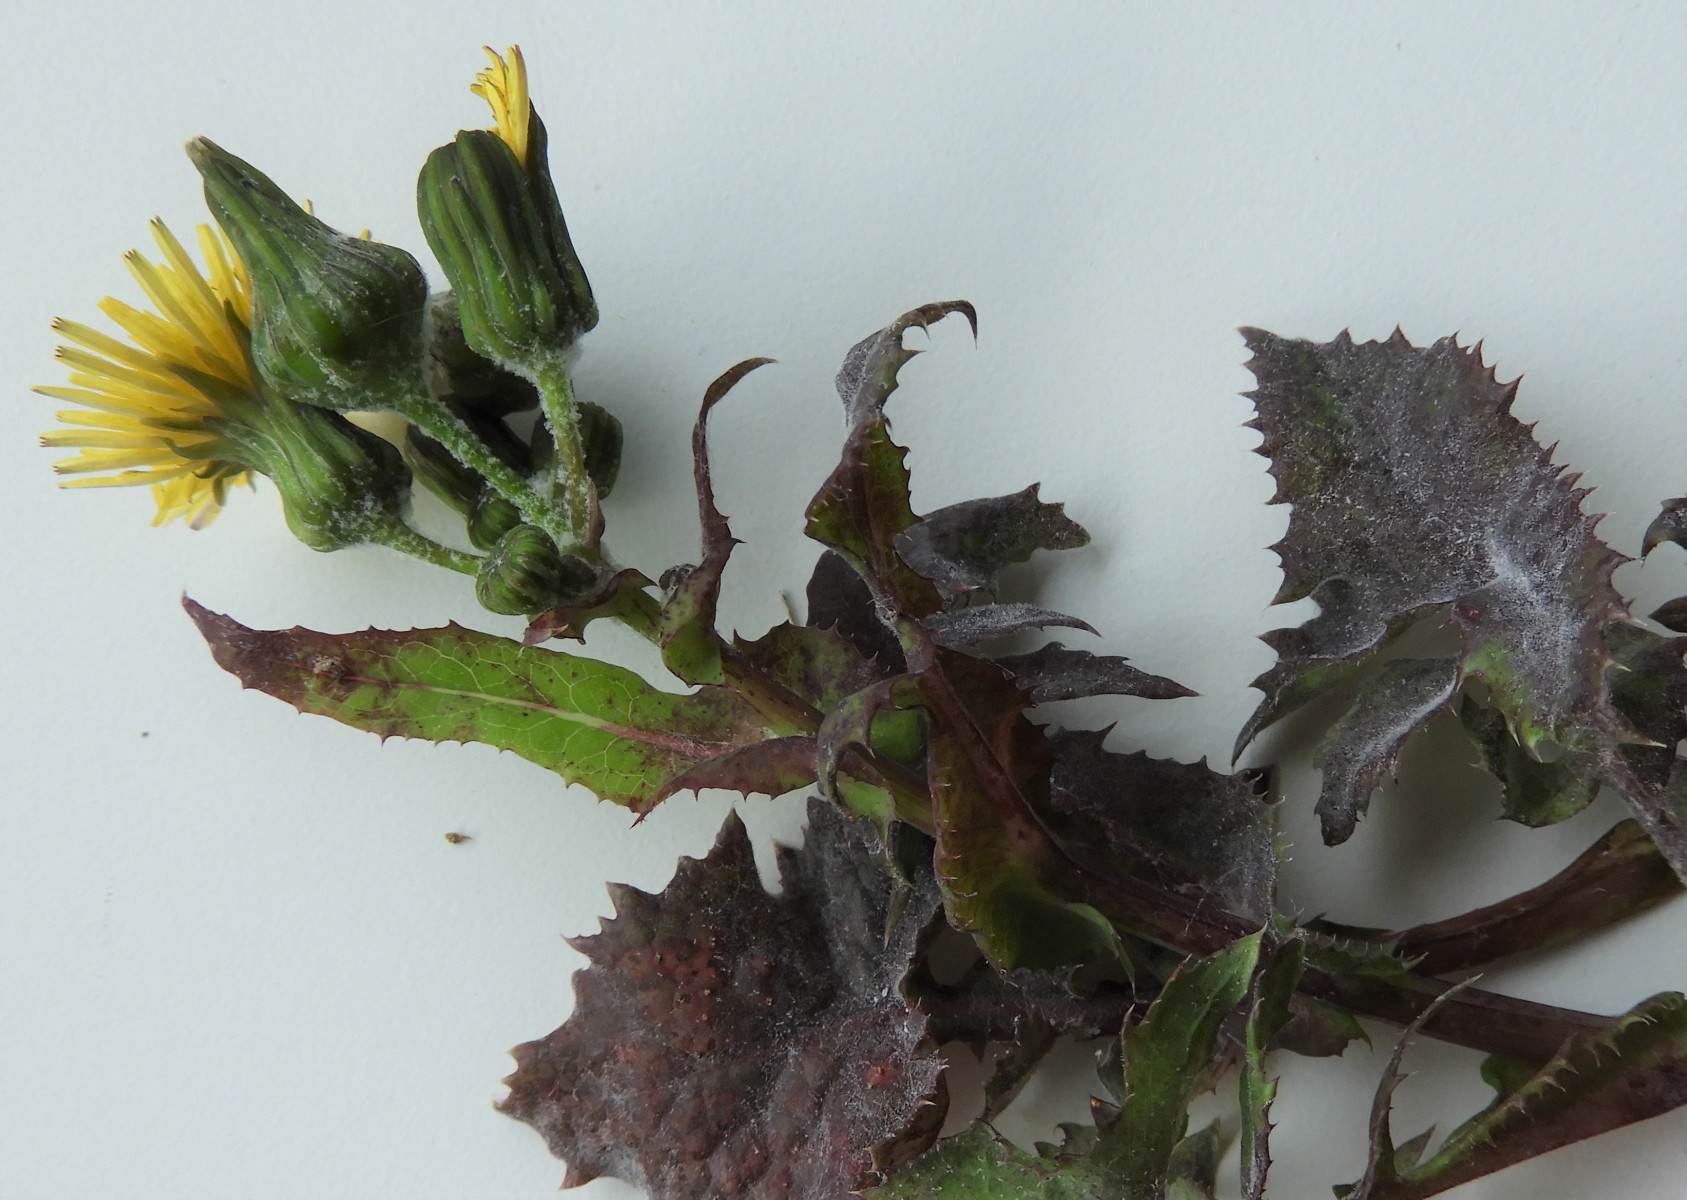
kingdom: Fungi
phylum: Basidiomycota
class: Pucciniomycetes
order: Pucciniales
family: Pucciniaceae
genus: Peristemma
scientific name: Peristemma pseudosphaeria
